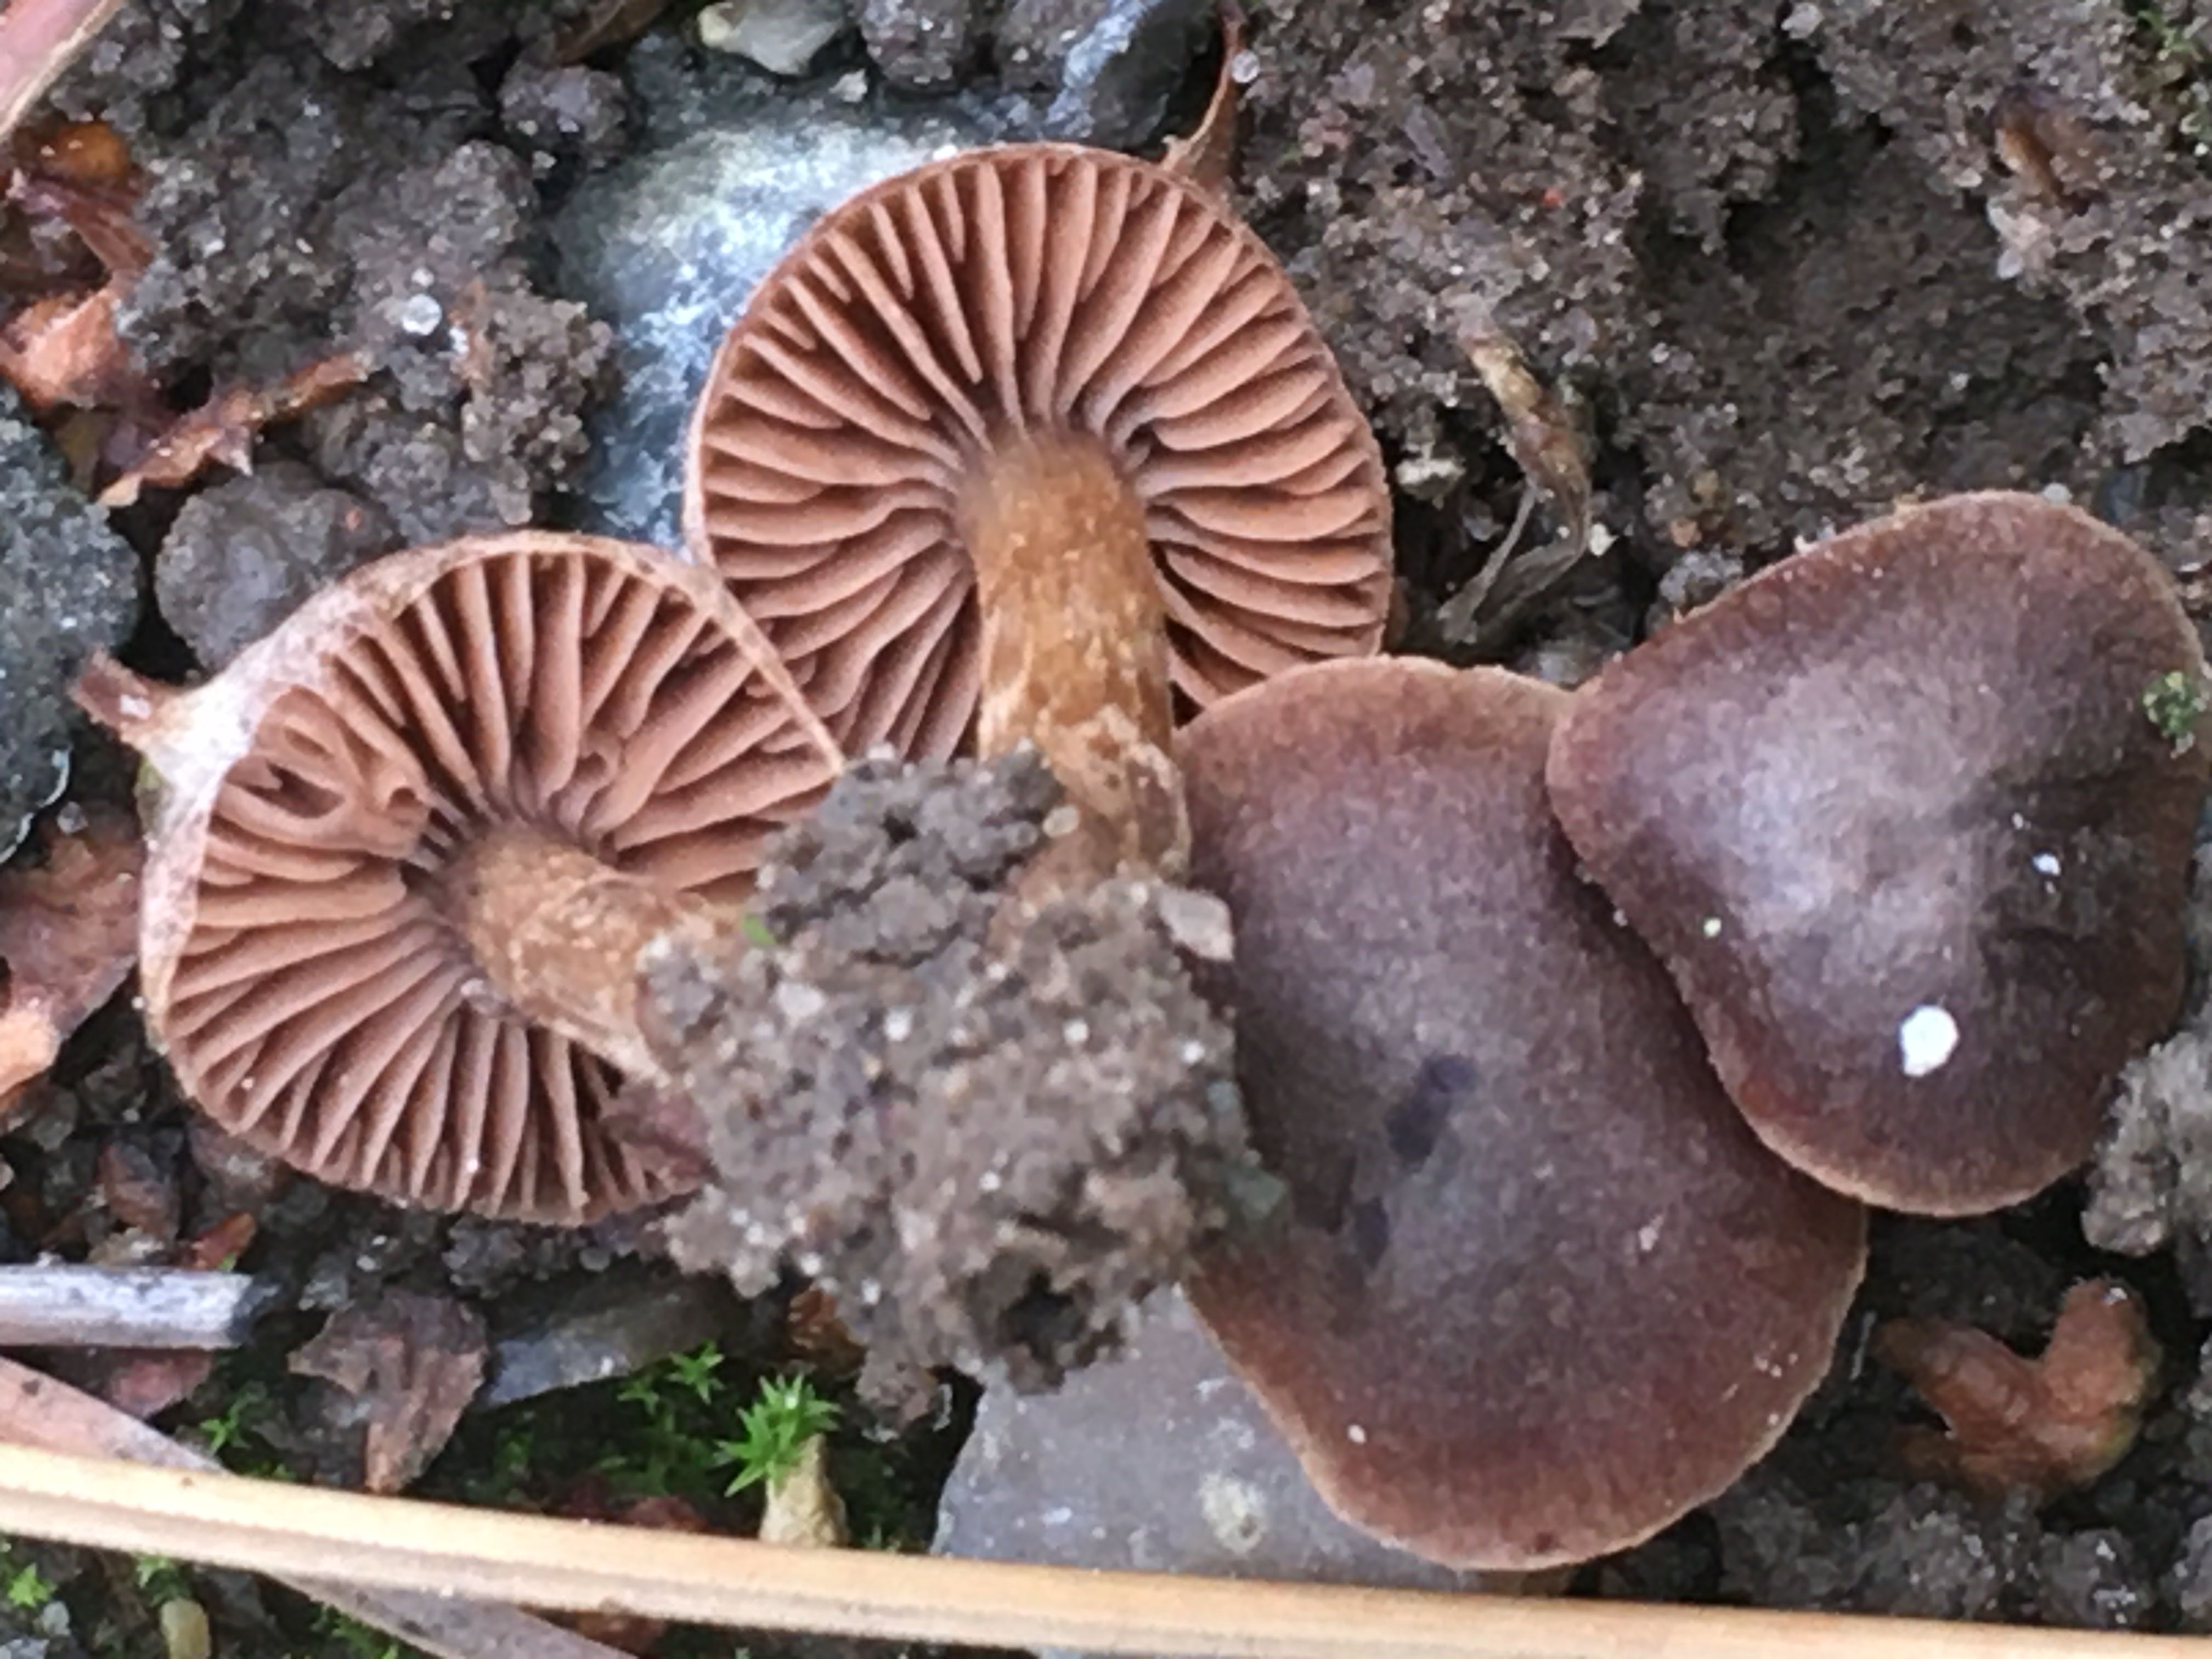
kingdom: Fungi
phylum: Basidiomycota
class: Agaricomycetes
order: Agaricales
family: Cortinariaceae
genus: Cortinarius
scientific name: Cortinarius
